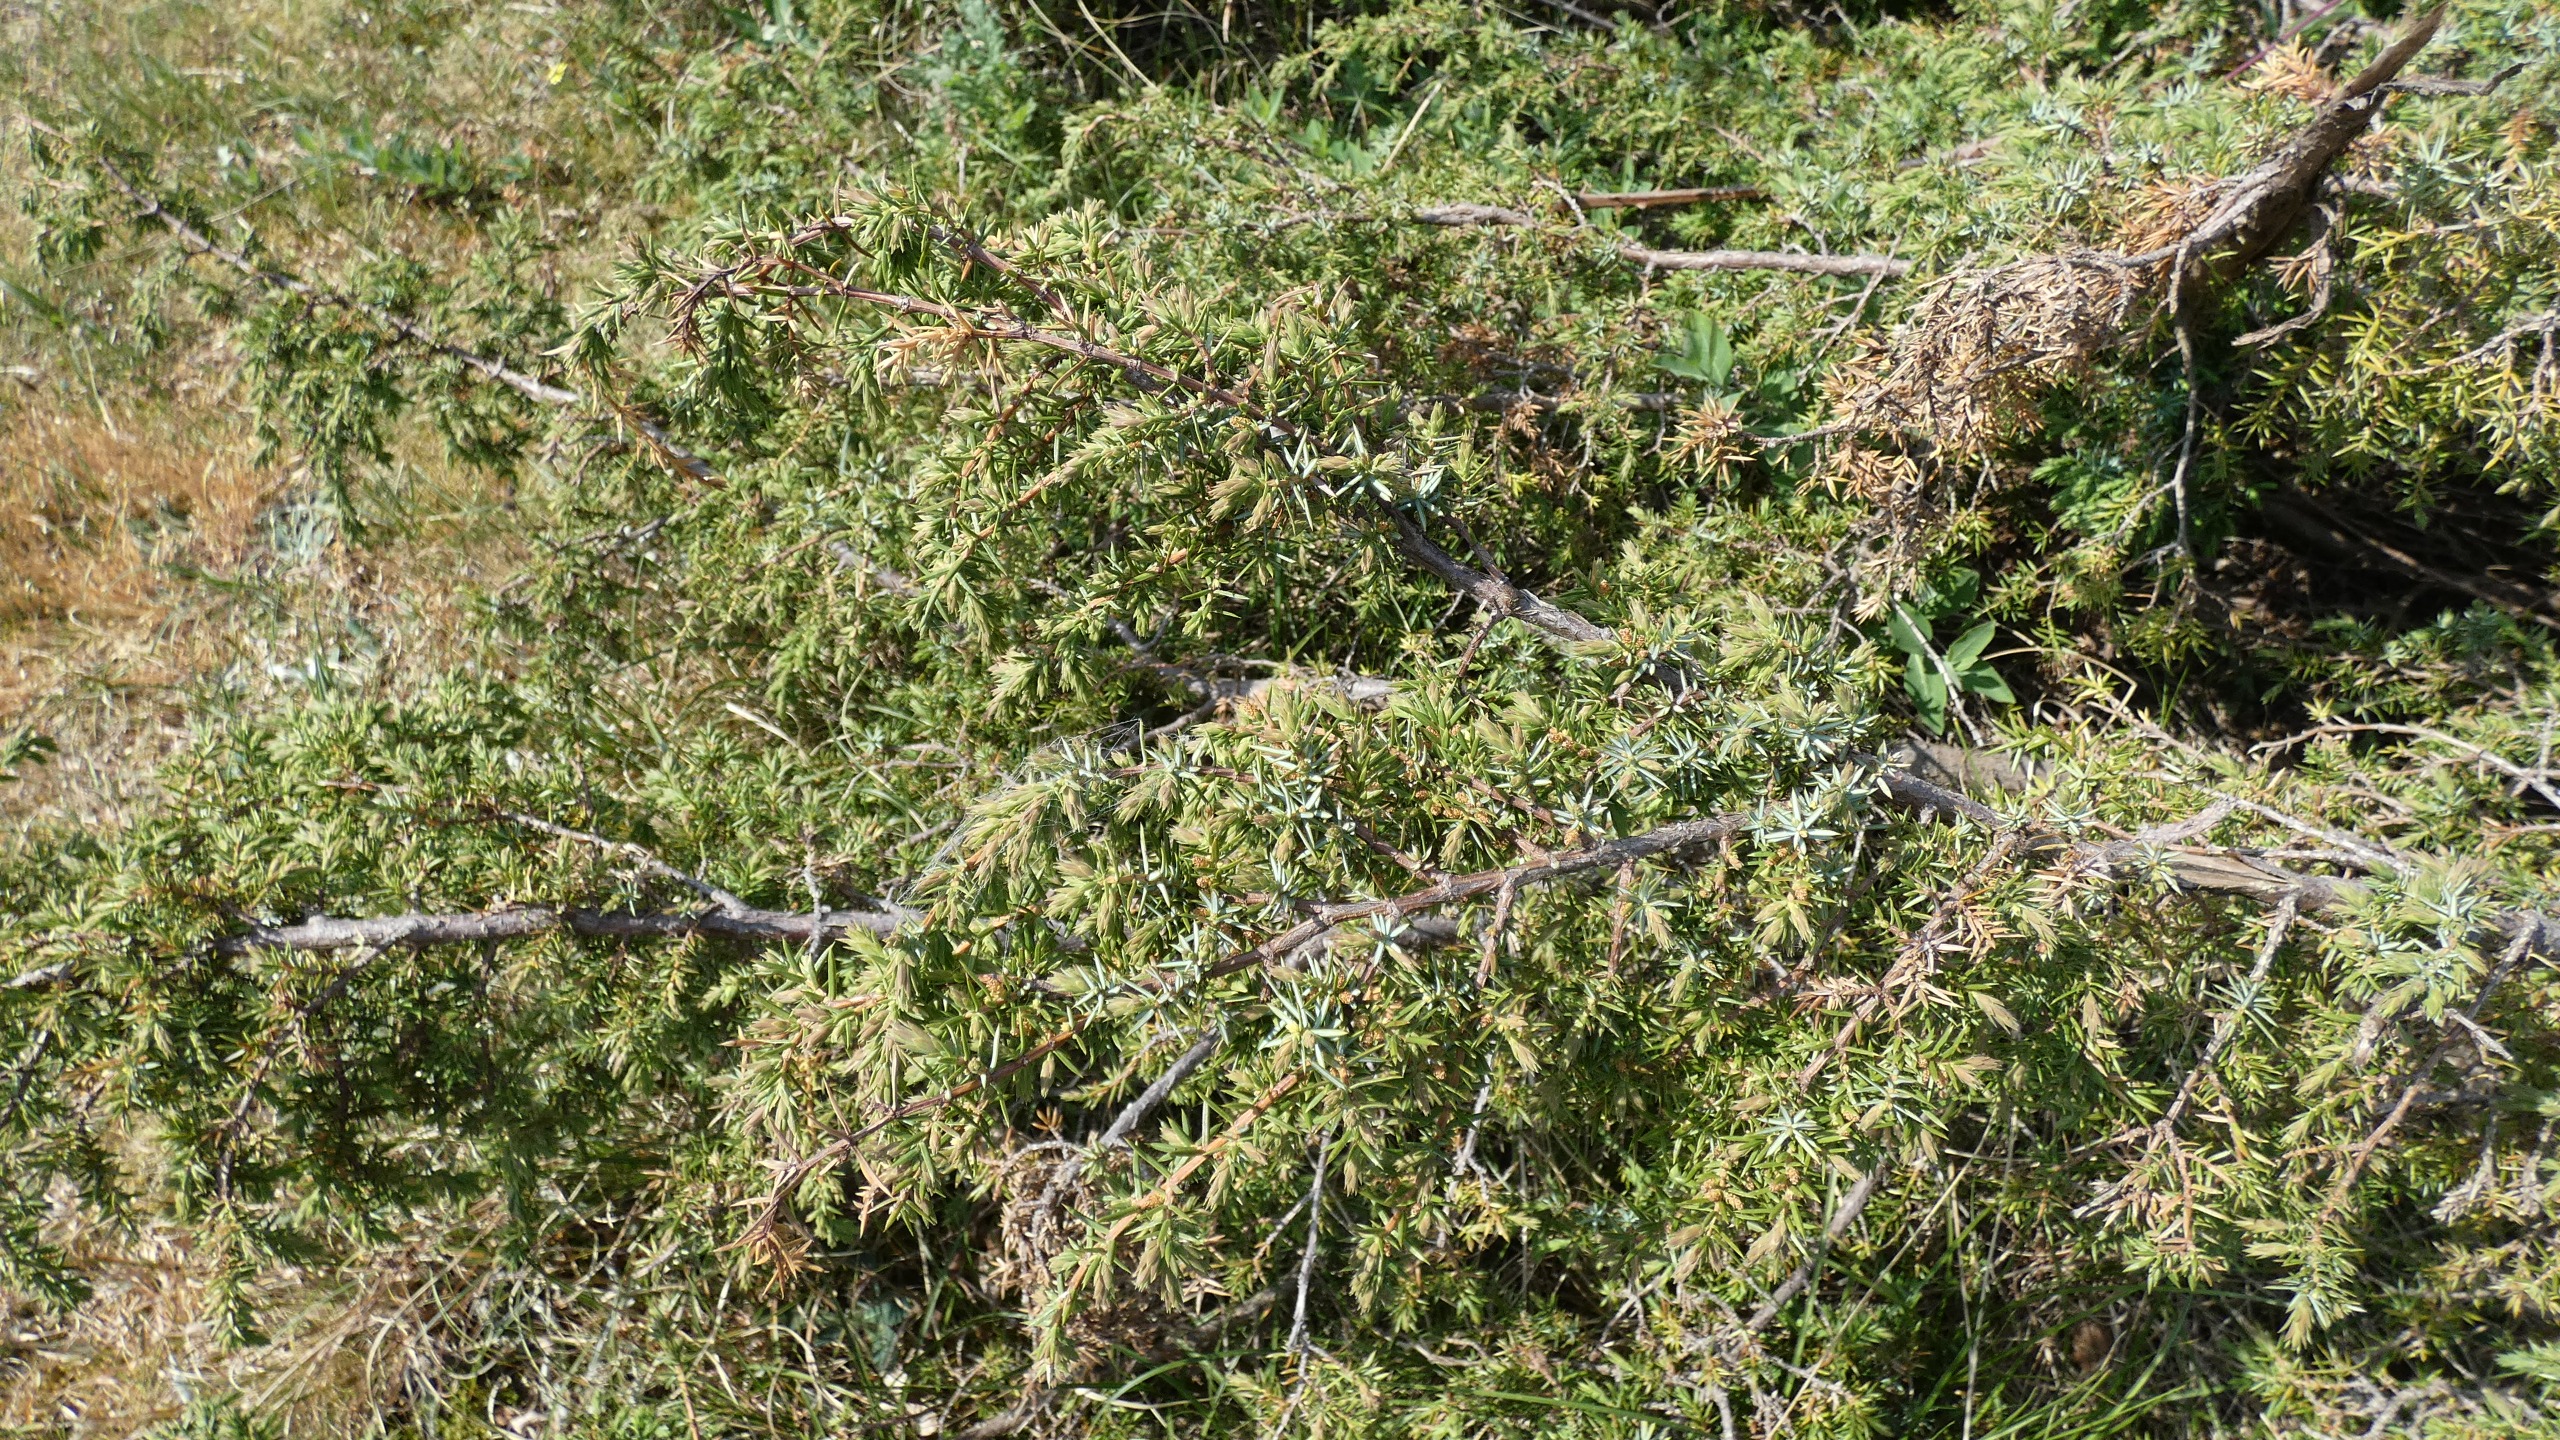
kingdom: Plantae
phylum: Tracheophyta
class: Pinopsida
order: Pinales
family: Cupressaceae
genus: Juniperus
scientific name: Juniperus communis
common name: Almindelig ene
